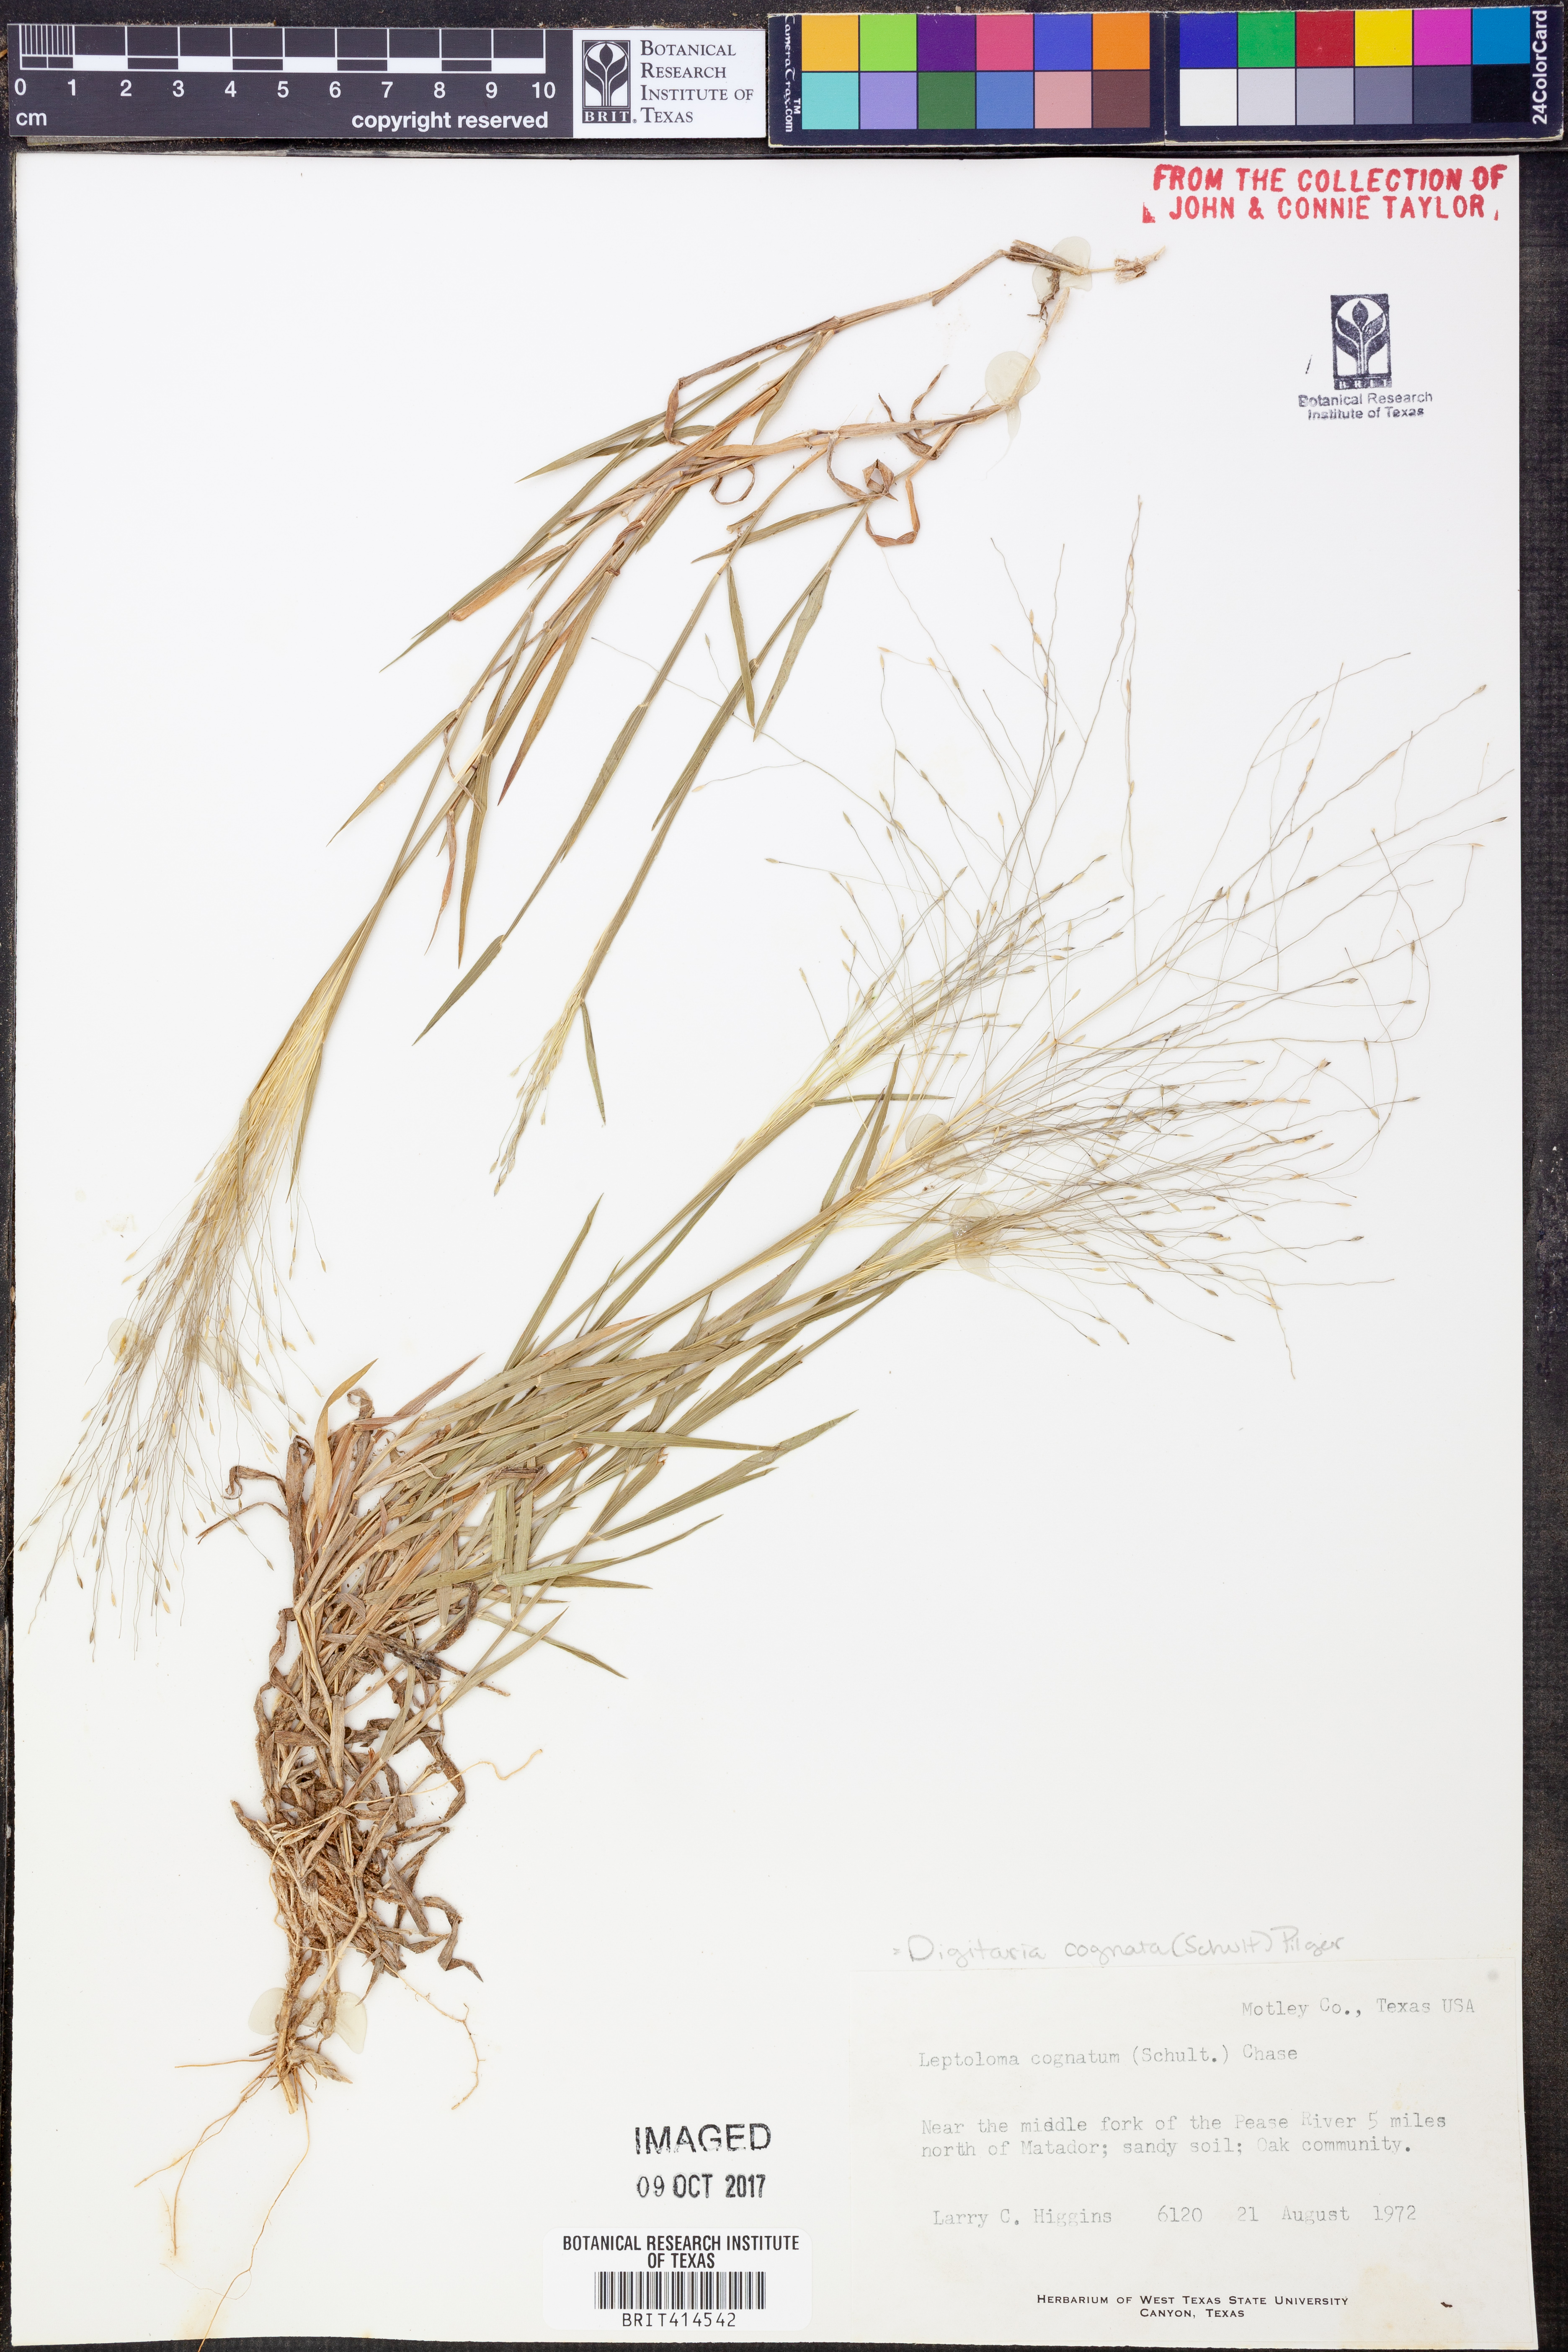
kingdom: Plantae
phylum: Tracheophyta
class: Liliopsida
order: Poales
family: Poaceae
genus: Digitaria
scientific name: Digitaria cognata
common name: Fall witchgrass
